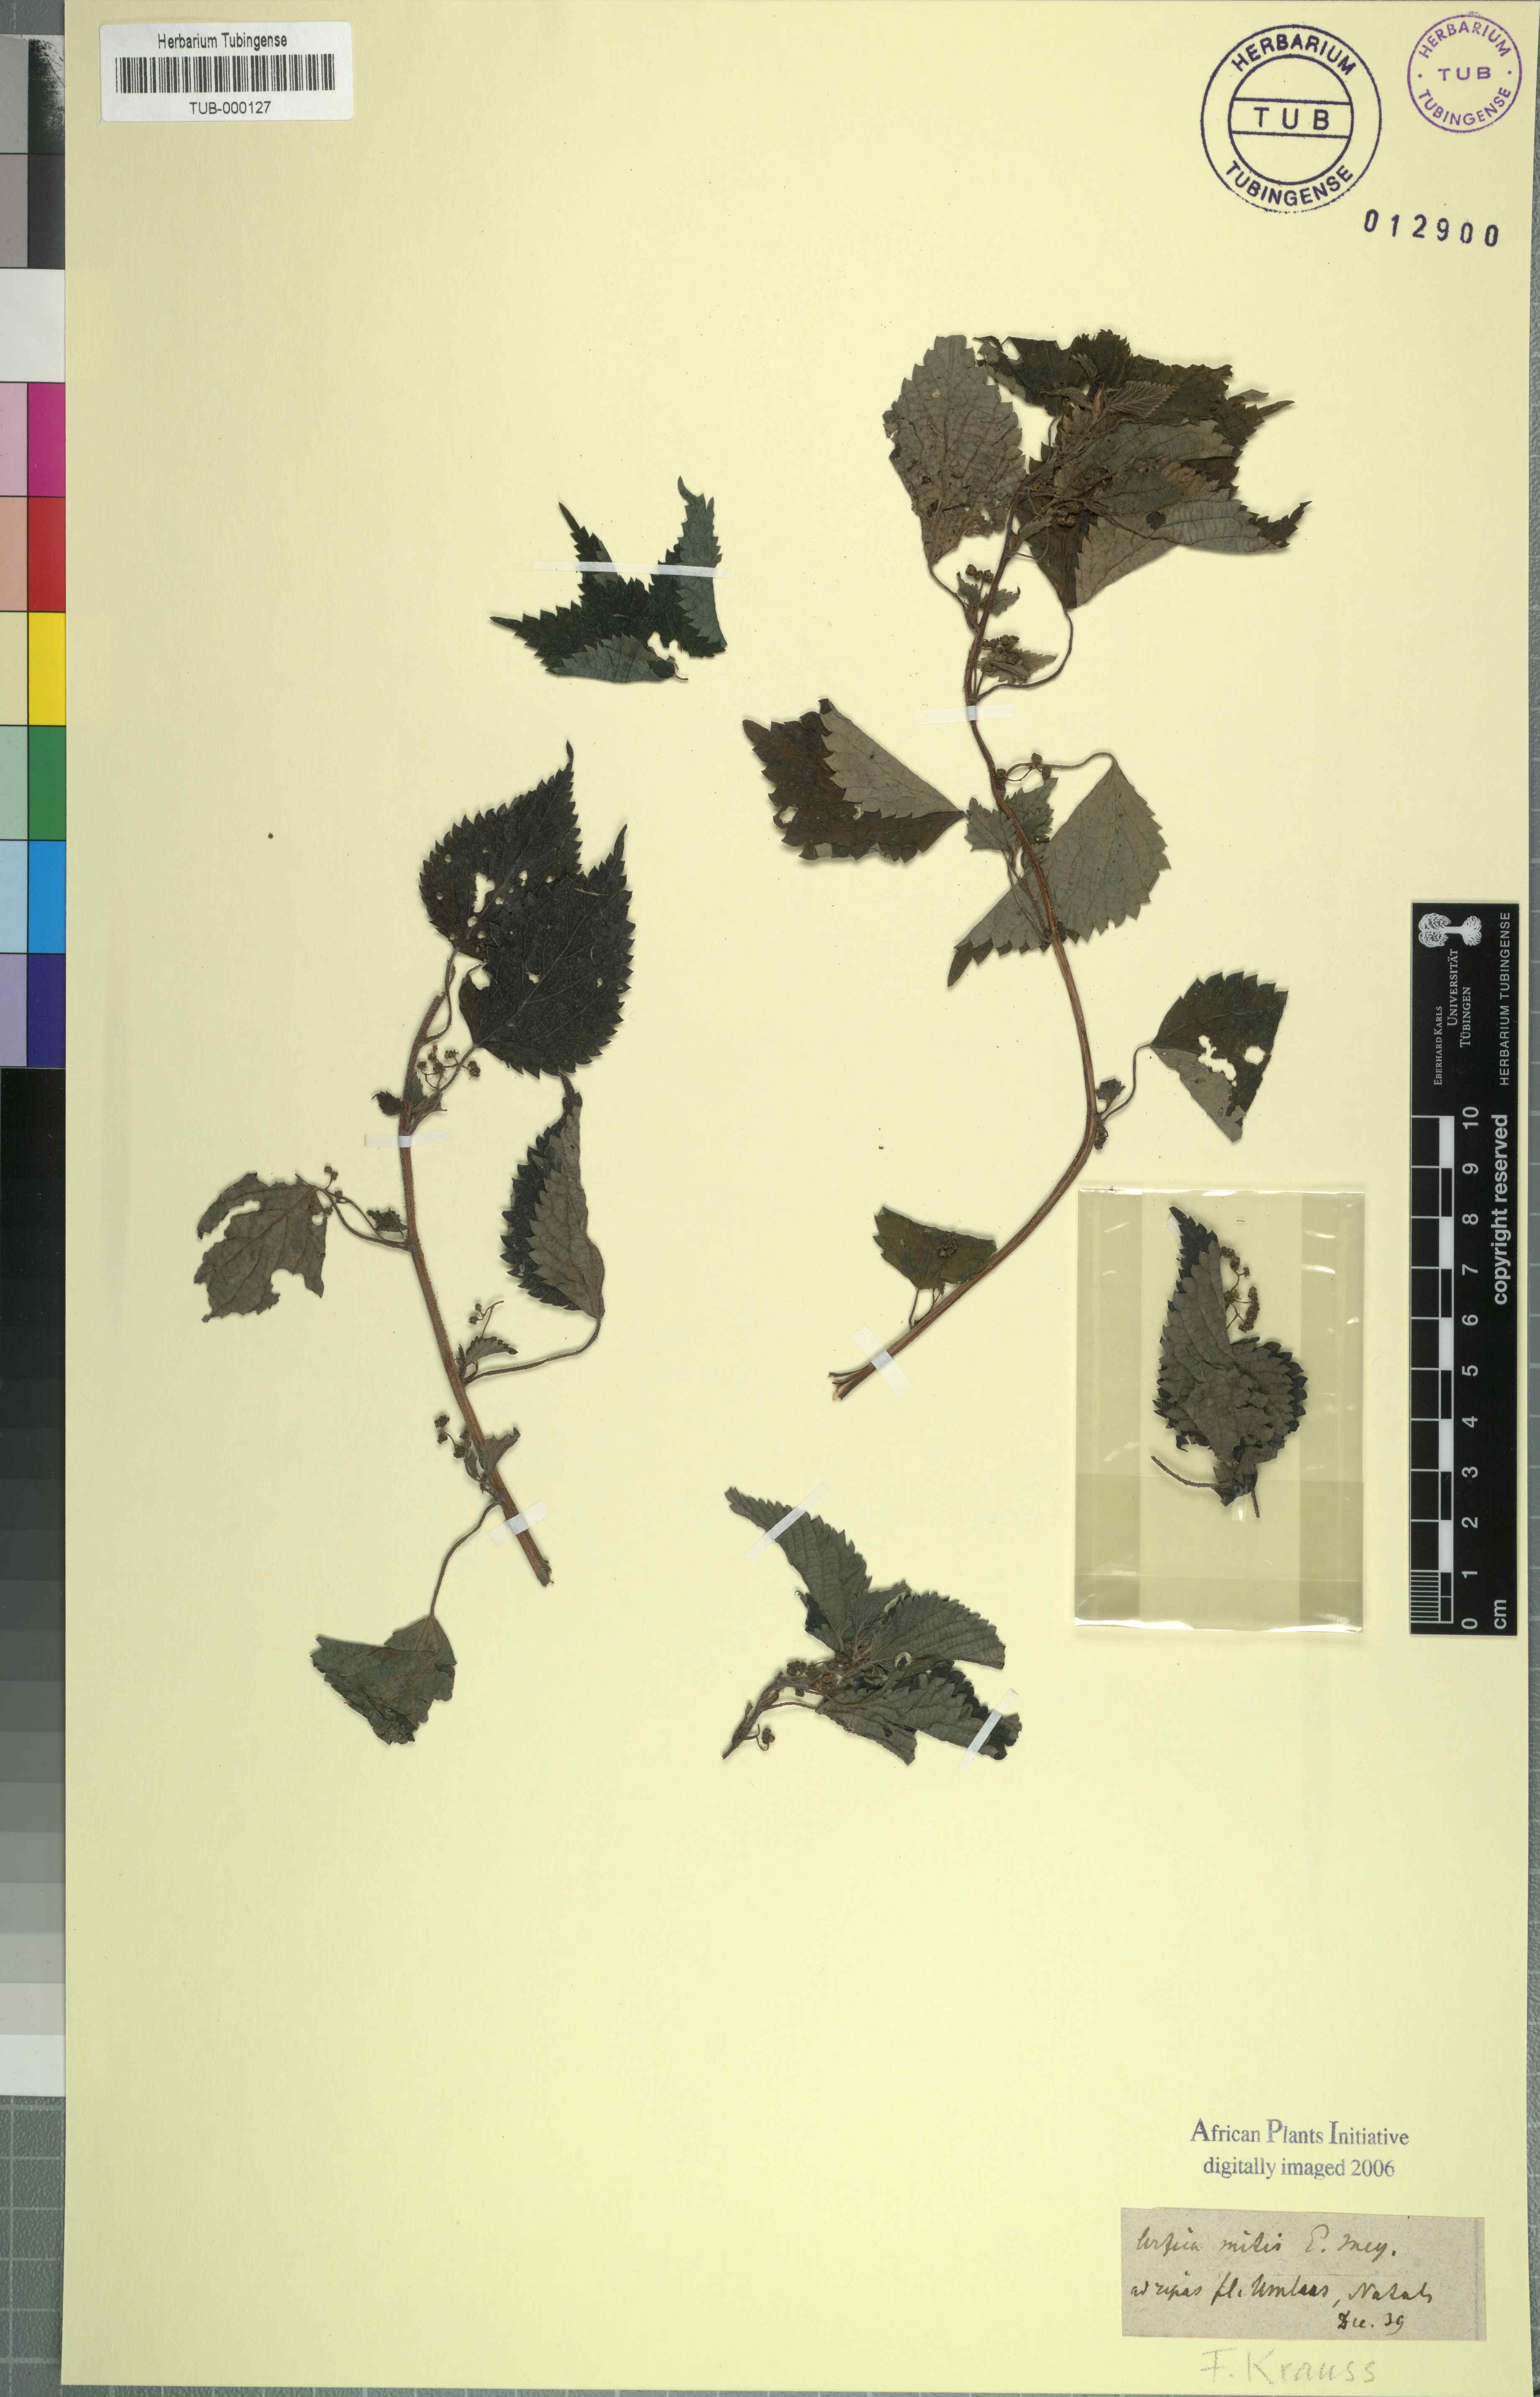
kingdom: Plantae
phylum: Tracheophyta
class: Magnoliopsida
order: Rosales
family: Urticaceae
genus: Didymodoxa
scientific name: Didymodoxa capensis
